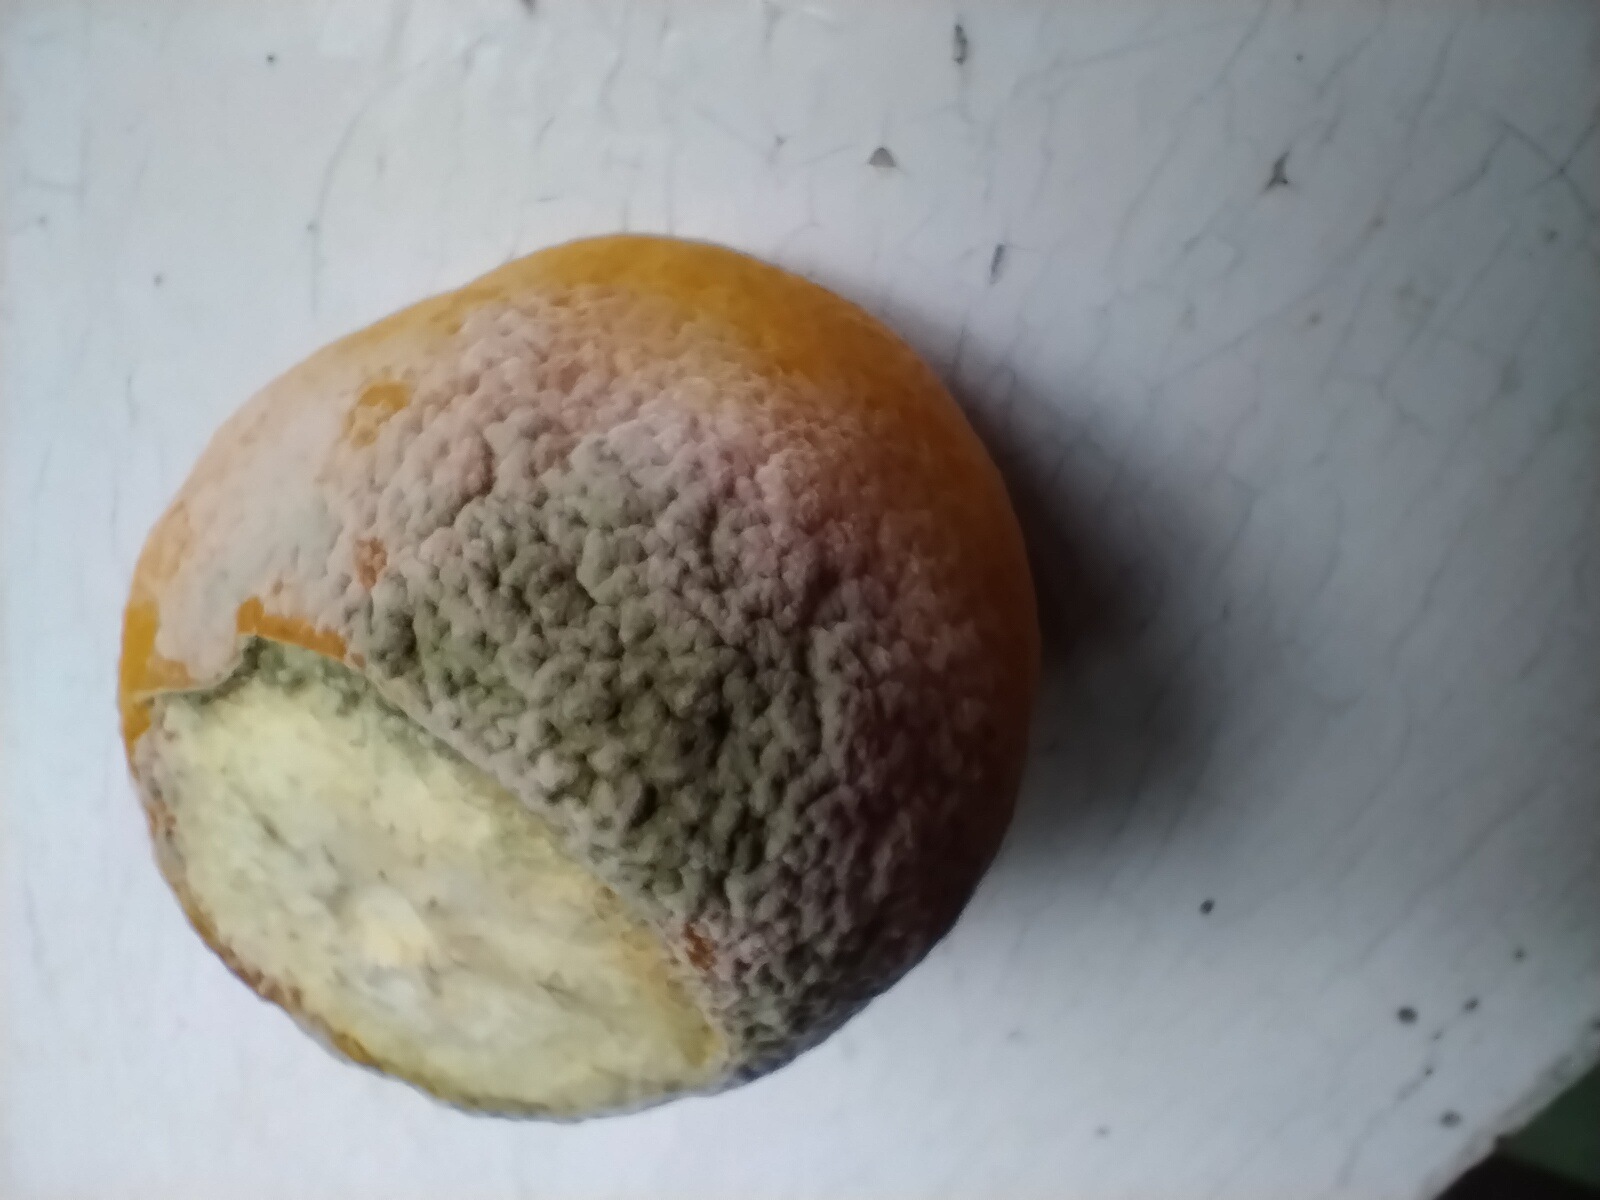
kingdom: Fungi
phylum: Ascomycota
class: Eurotiomycetes
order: Eurotiales
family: Aspergillaceae
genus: Penicillium
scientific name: Penicillium
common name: penselskimmel
